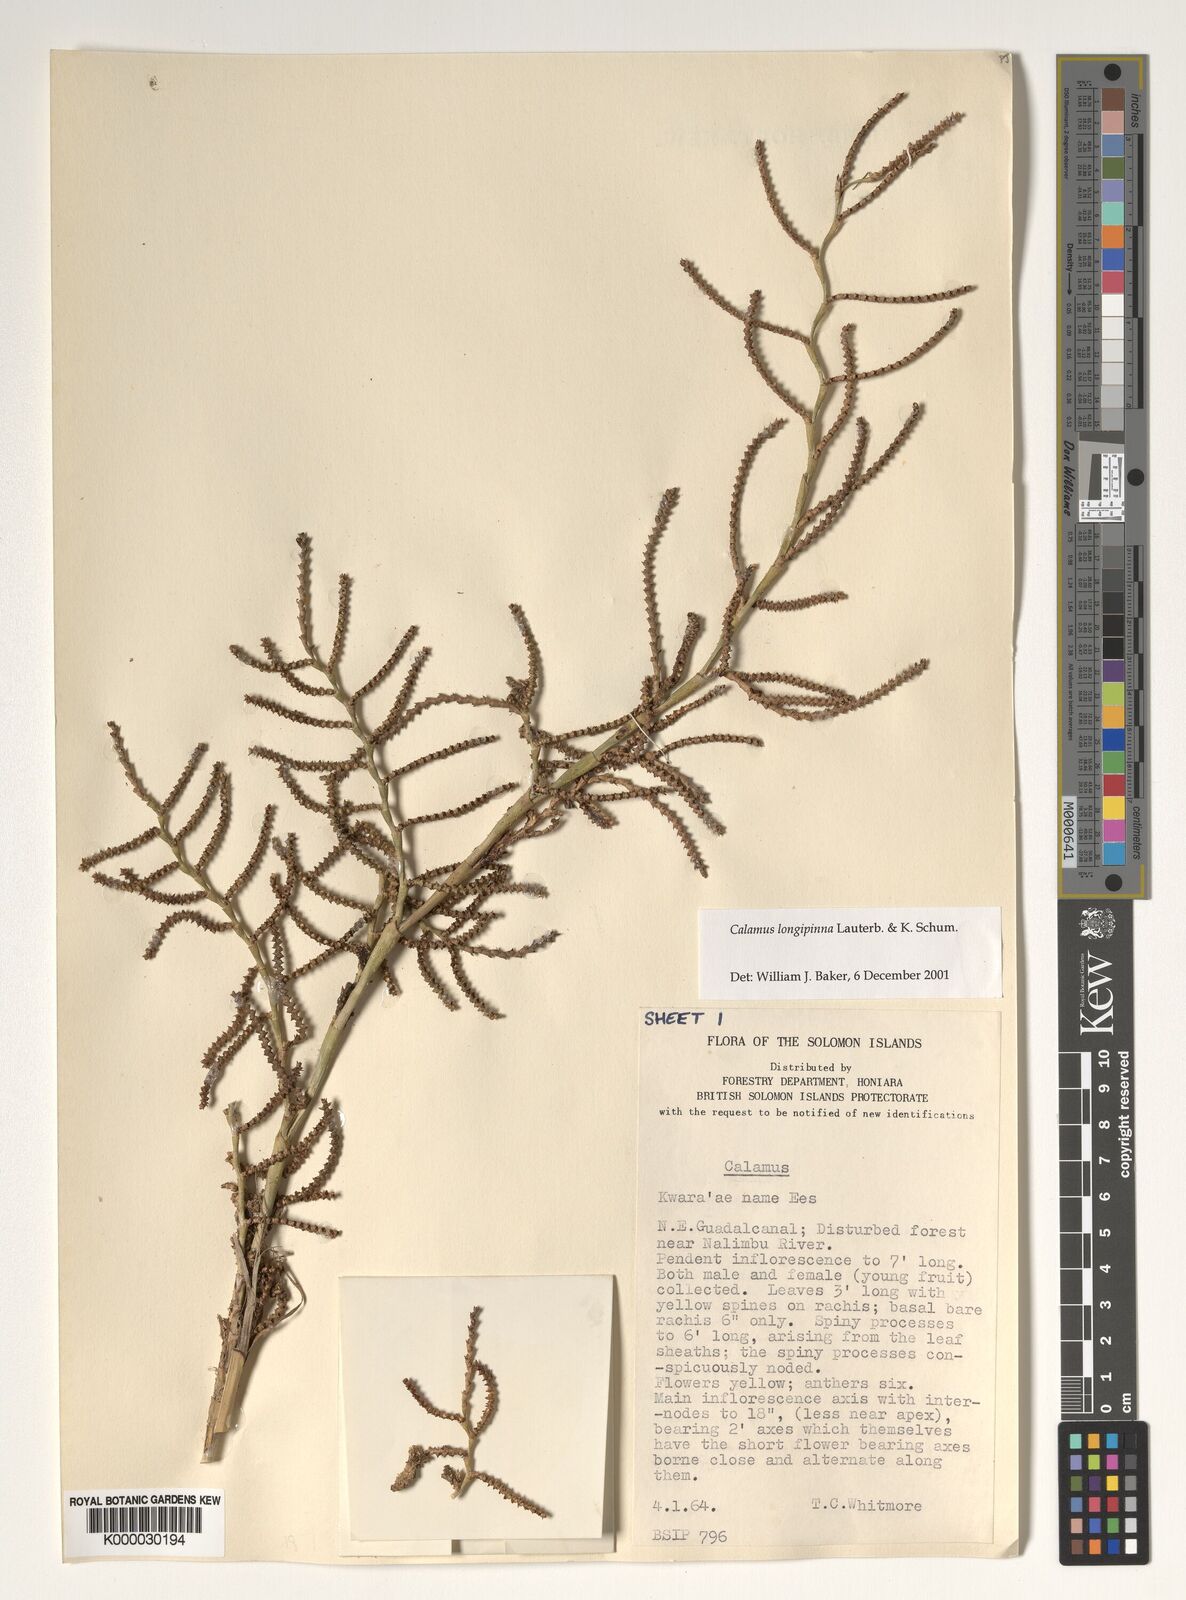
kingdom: Plantae
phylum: Tracheophyta
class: Liliopsida
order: Arecales
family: Arecaceae
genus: Calamus
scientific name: Calamus longipinna
